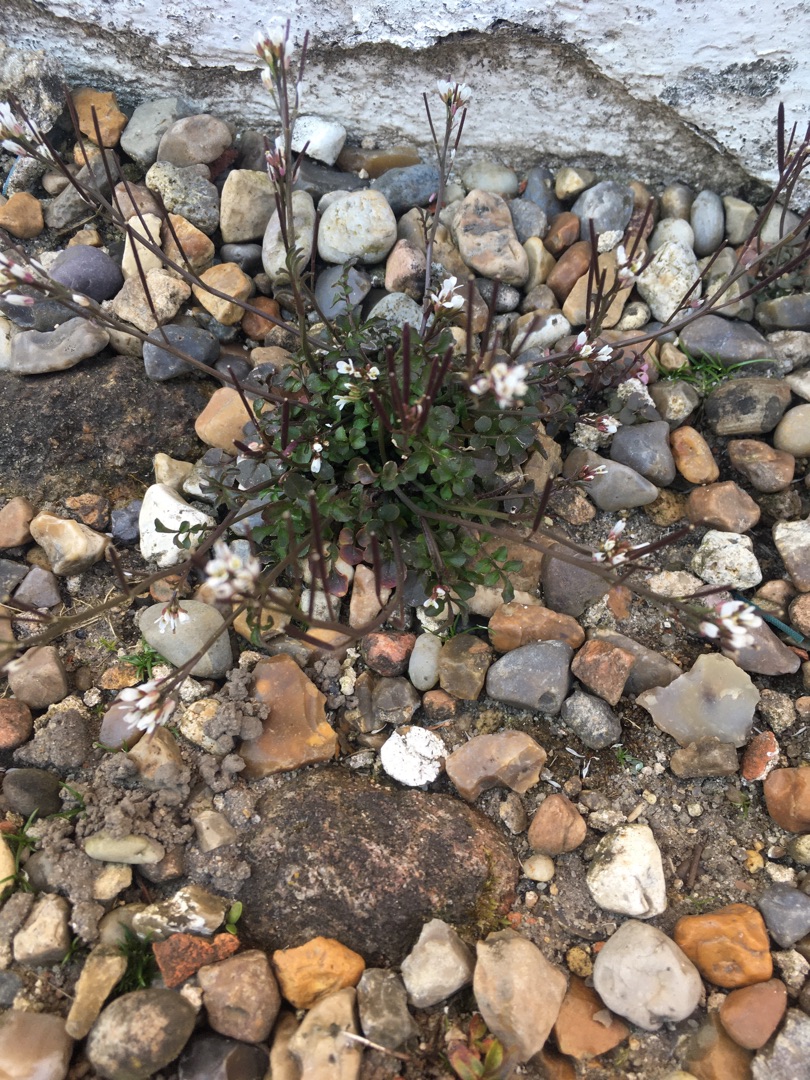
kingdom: Plantae
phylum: Tracheophyta
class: Magnoliopsida
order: Brassicales
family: Brassicaceae
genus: Cardamine
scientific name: Cardamine hirsuta
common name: Roset-springklap
